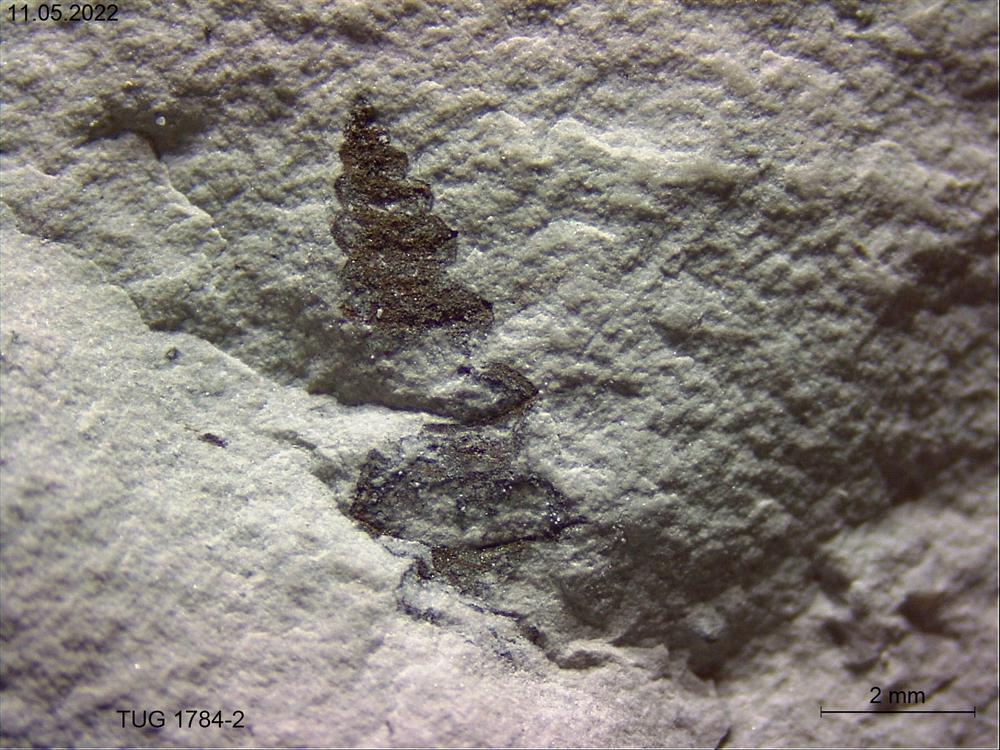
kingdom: Animalia
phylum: Mollusca
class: Gastropoda
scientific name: Gastropoda
